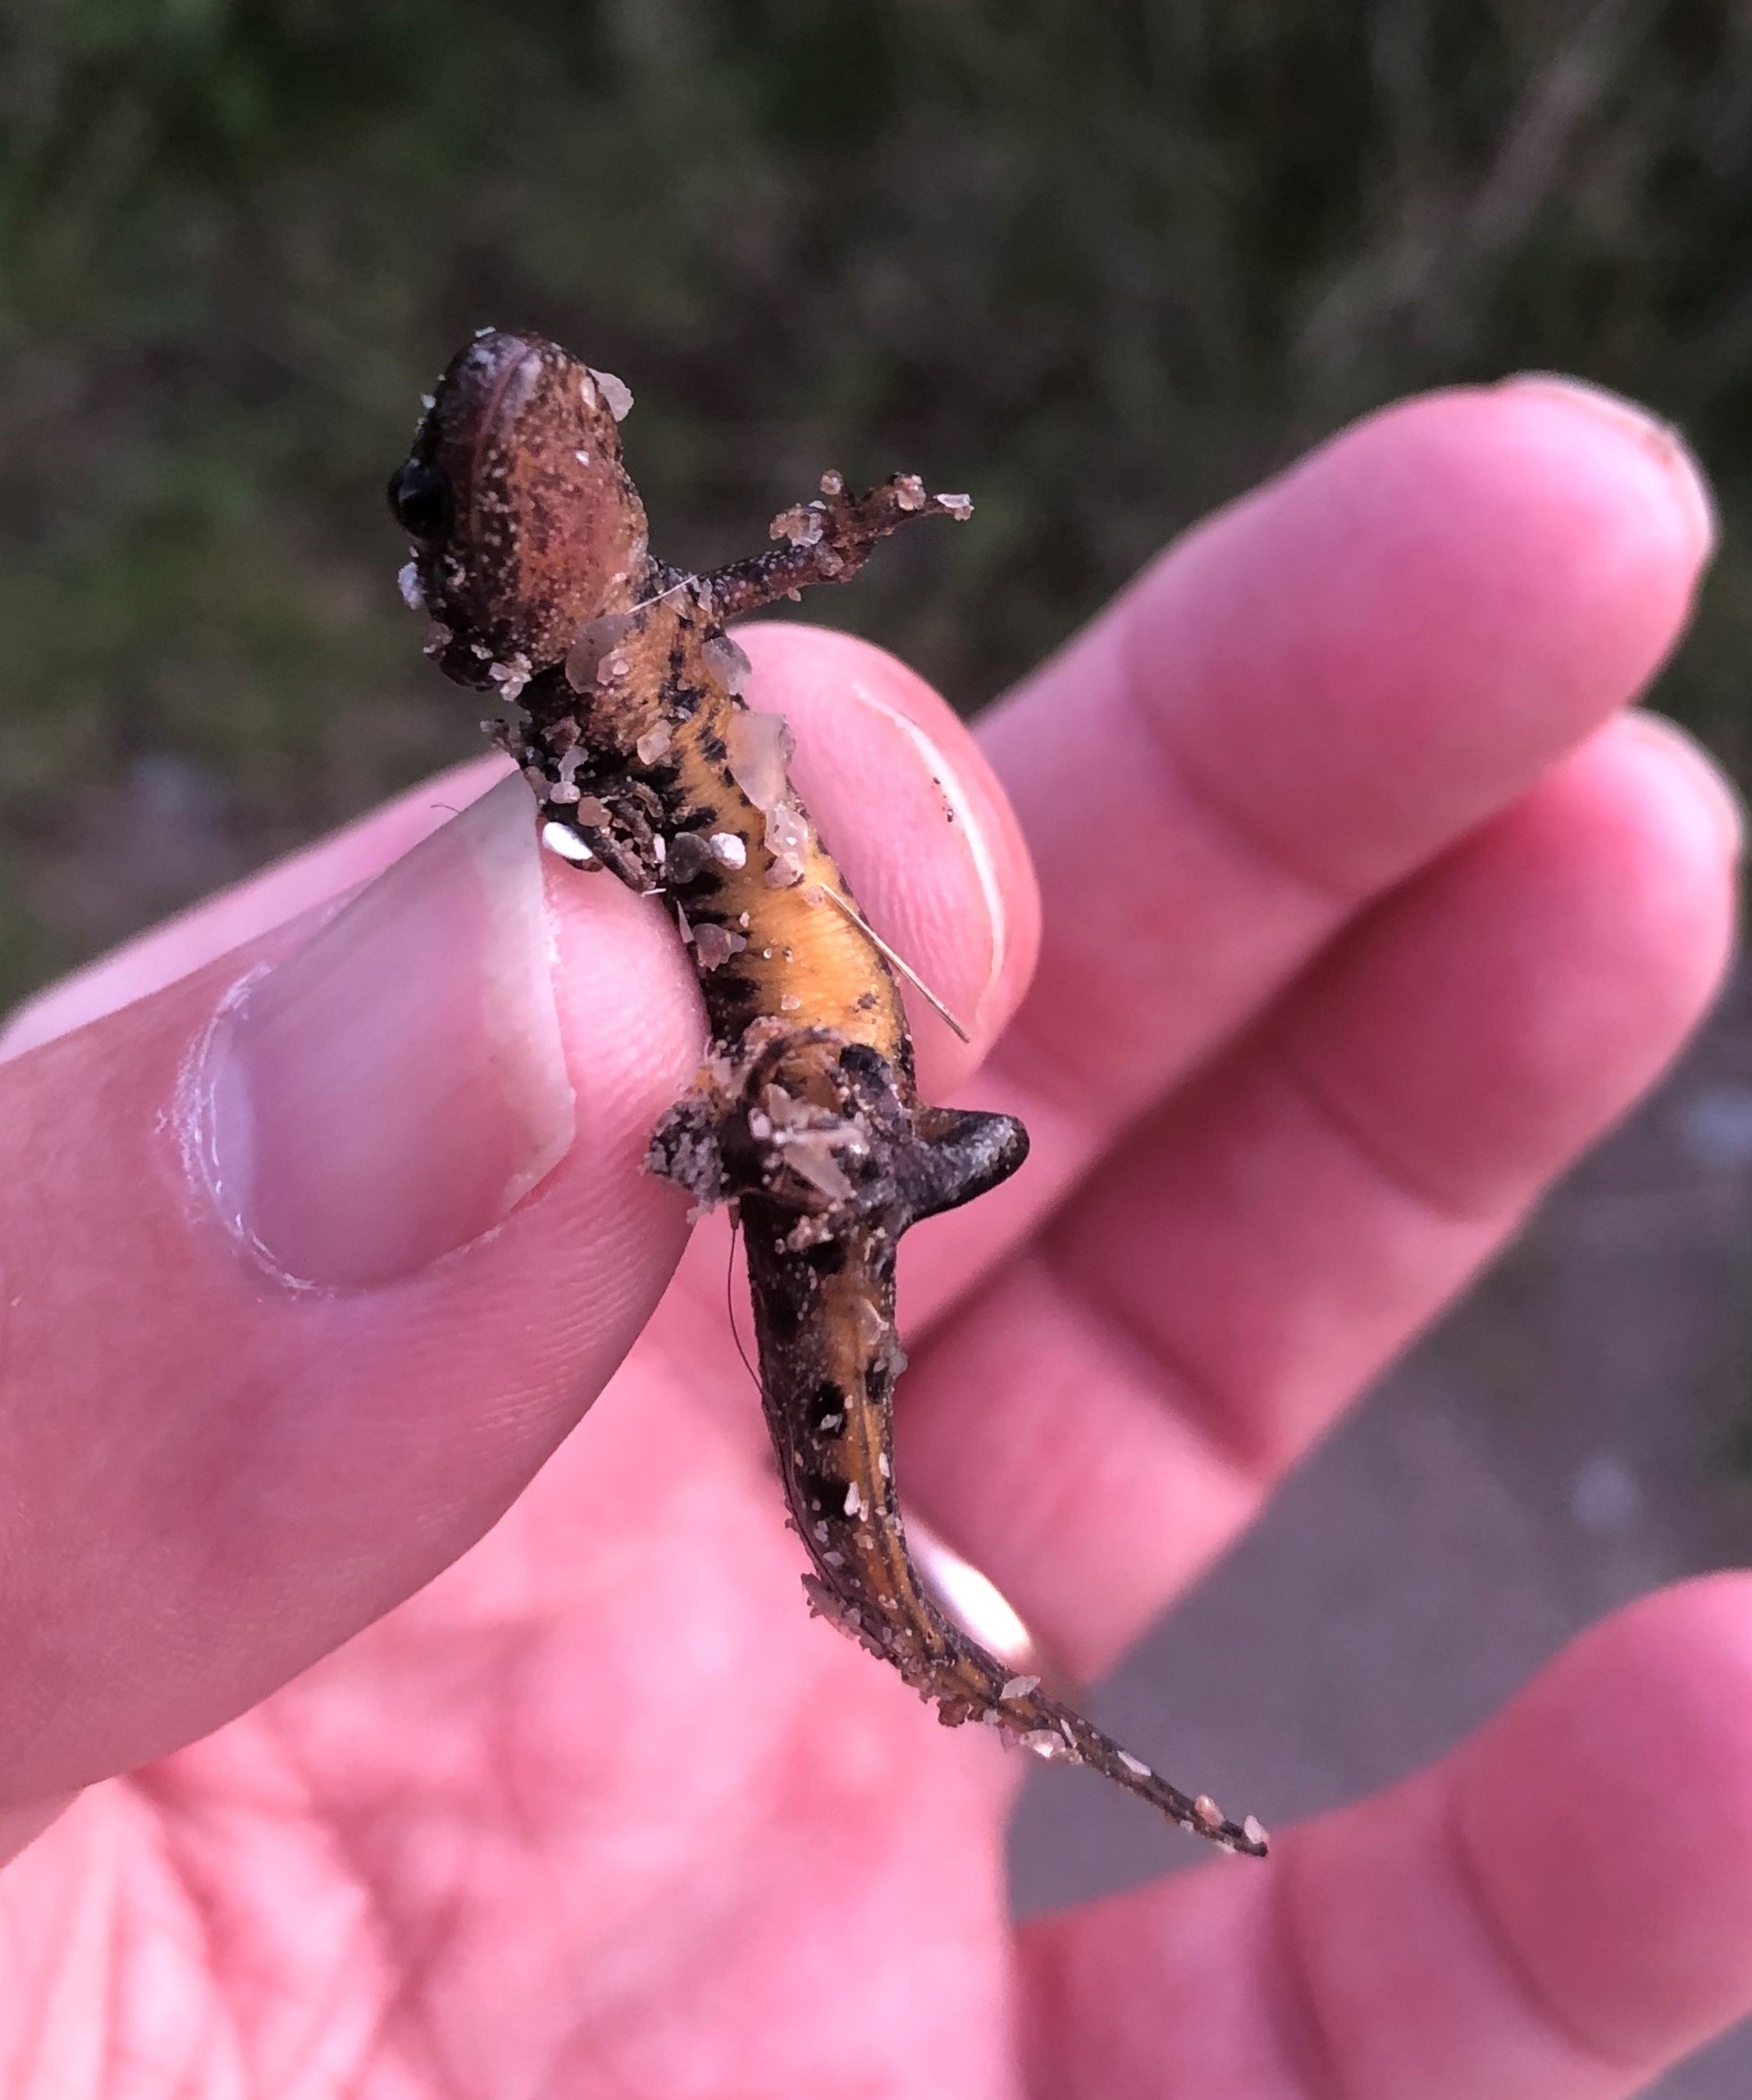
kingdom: Animalia
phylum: Chordata
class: Amphibia
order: Caudata
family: Salamandridae
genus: Triturus
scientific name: Triturus cristatus
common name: Stor vandsalamander
